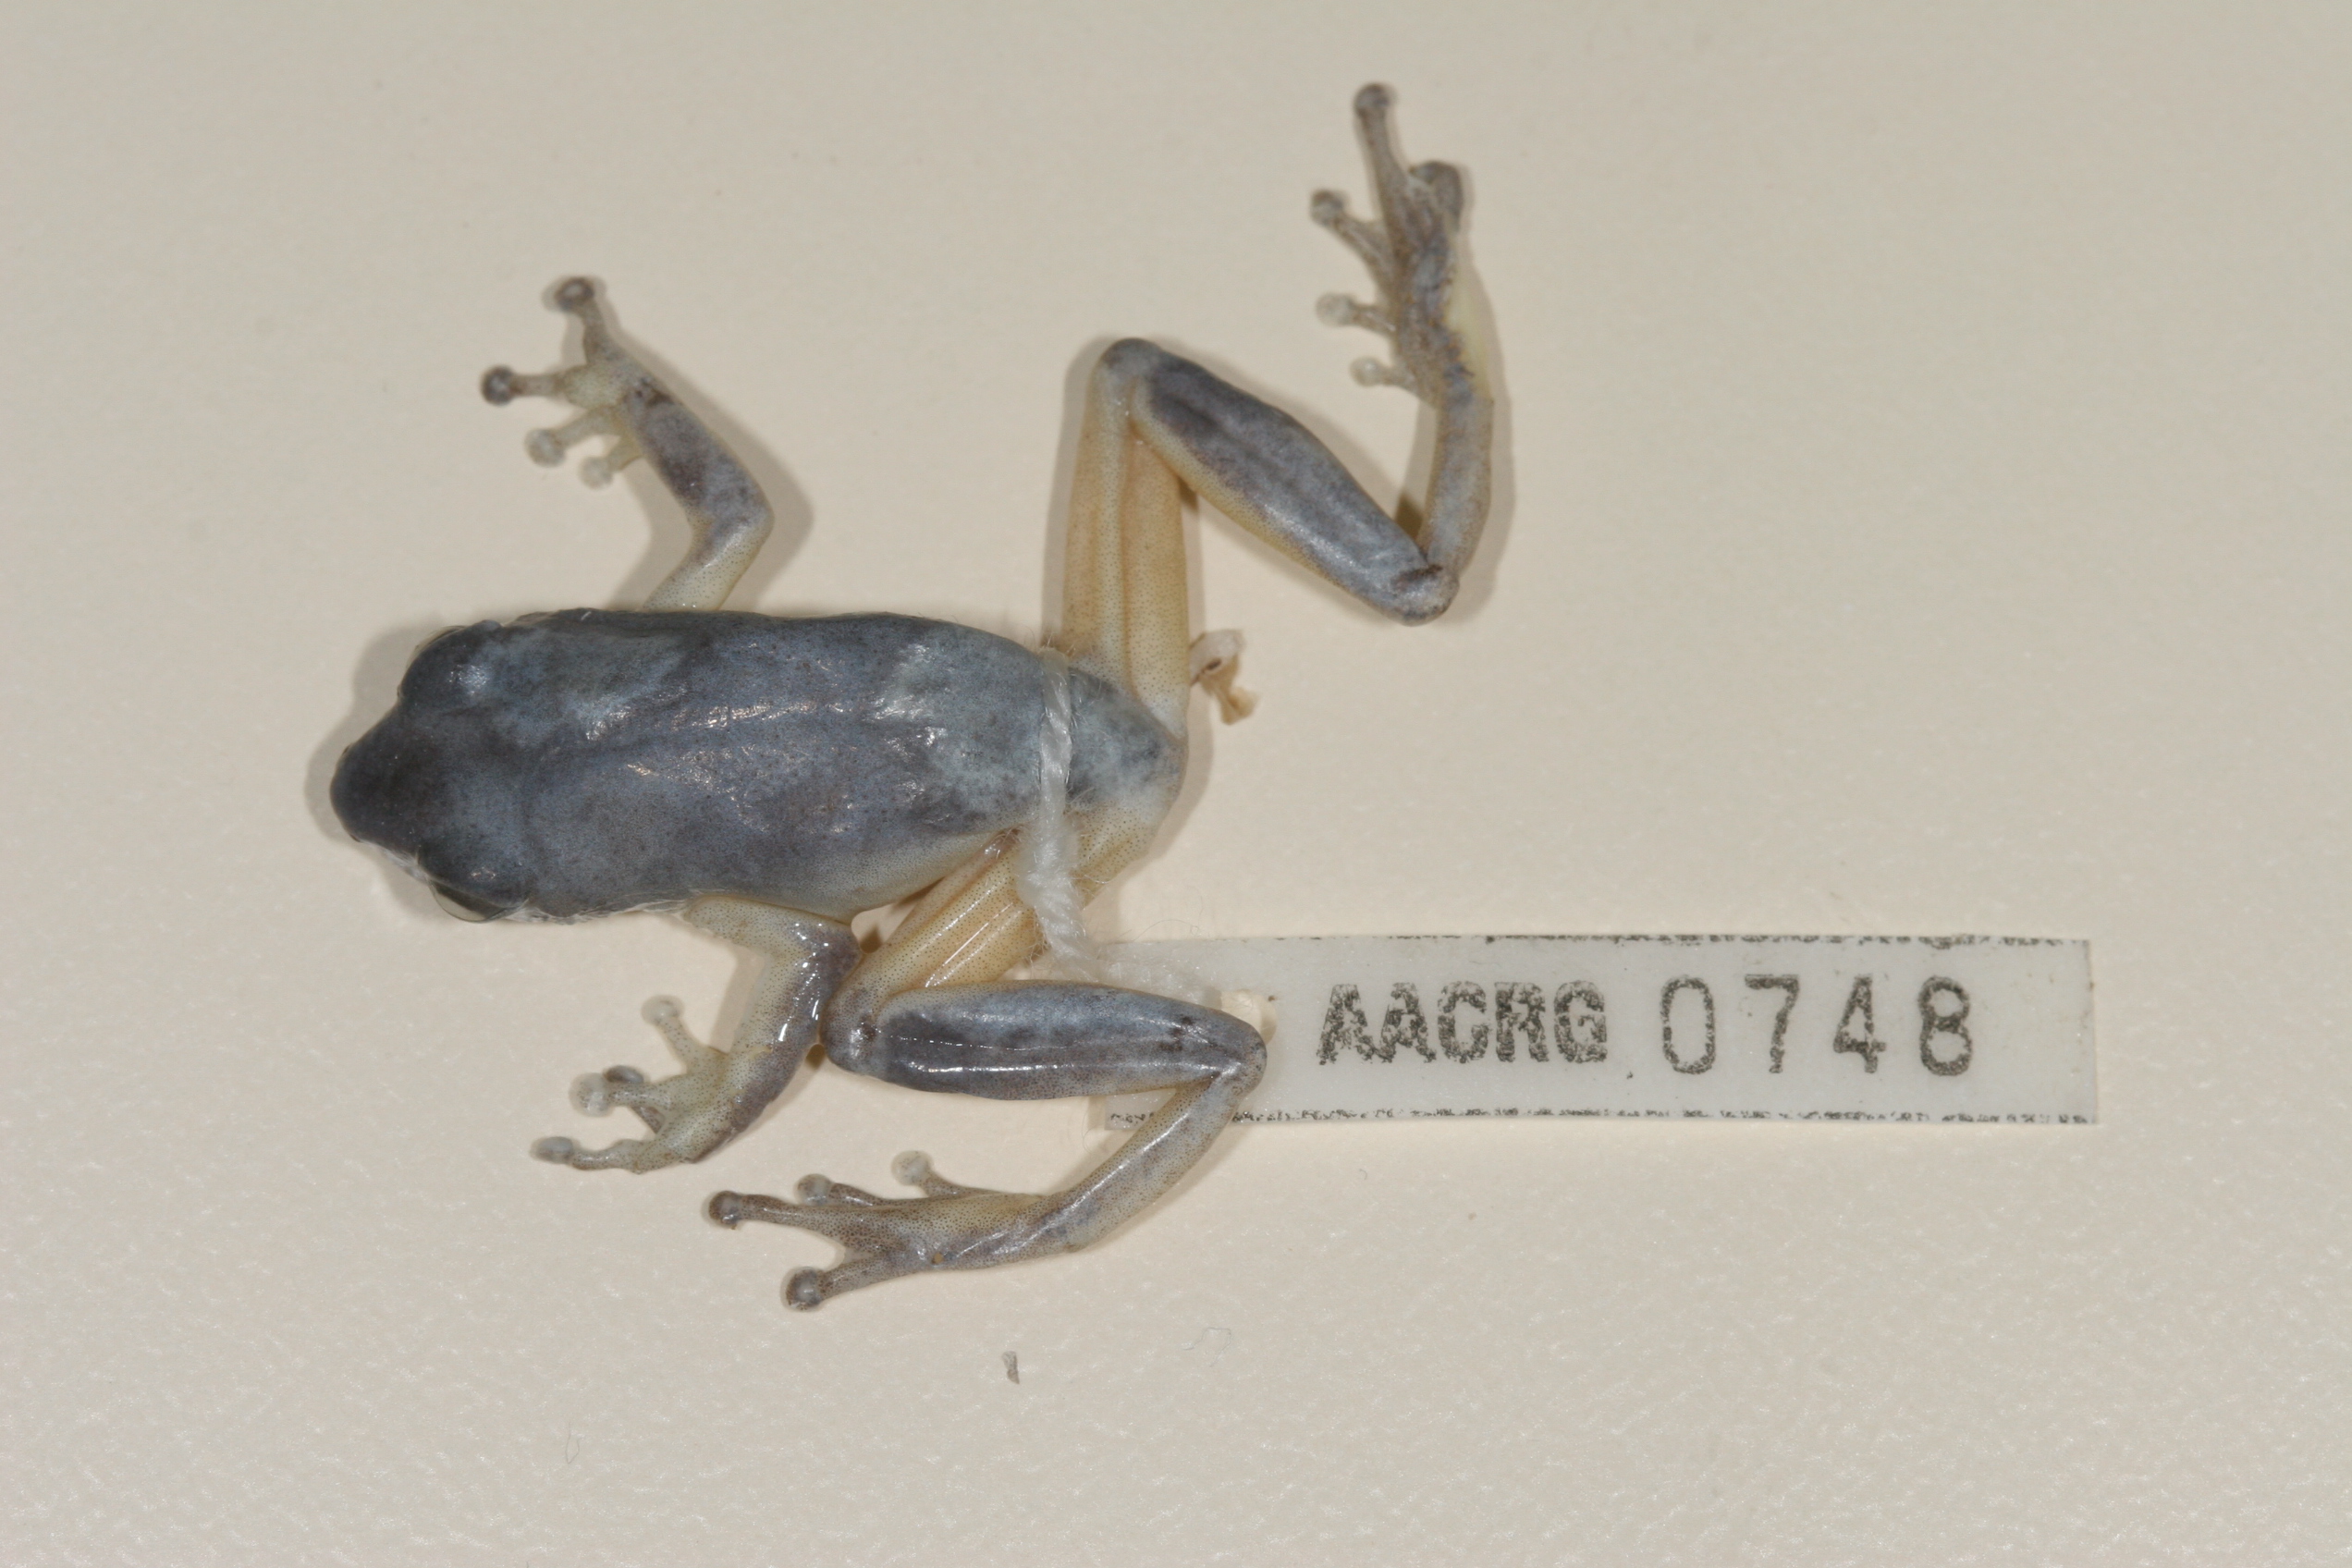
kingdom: Animalia
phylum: Chordata
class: Amphibia
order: Anura
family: Hyperoliidae
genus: Hyperolius
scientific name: Hyperolius tuberilinguis
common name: Tinker reed frog
